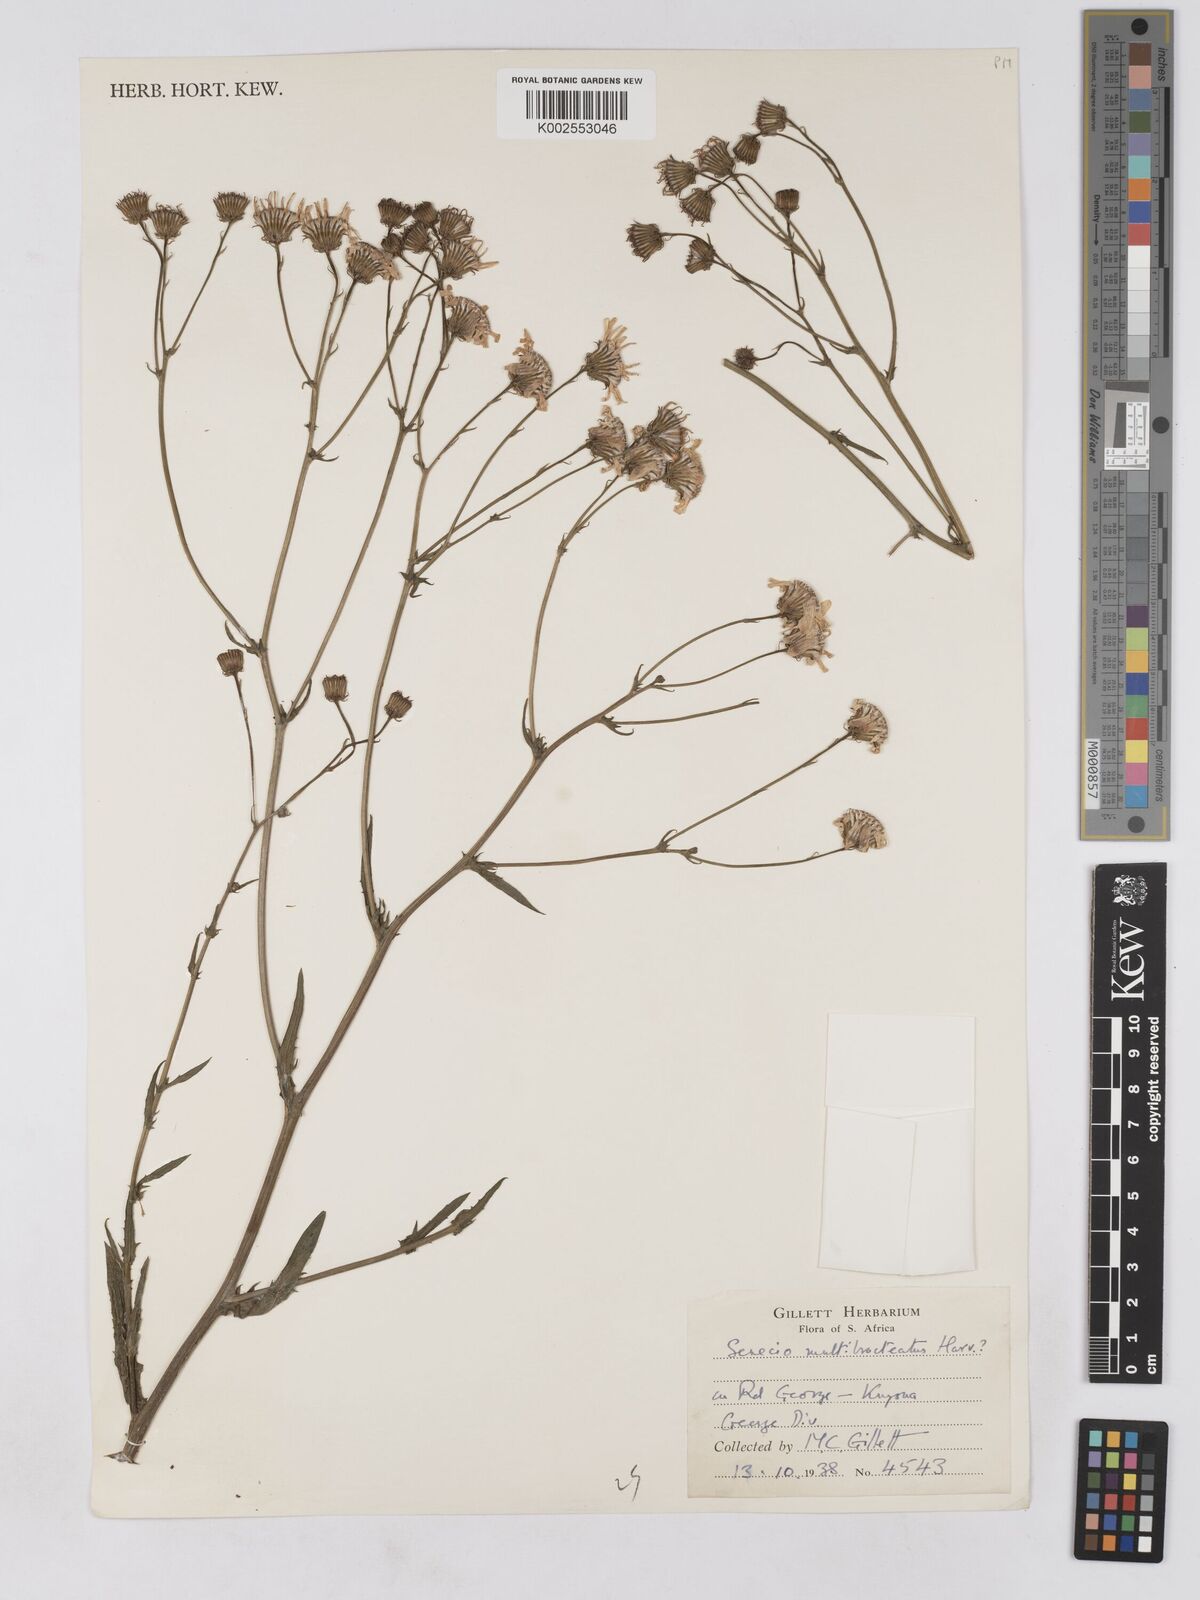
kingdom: Plantae
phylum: Tracheophyta
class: Magnoliopsida
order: Asterales
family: Asteraceae
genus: Senecio
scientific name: Senecio multibracteatus
